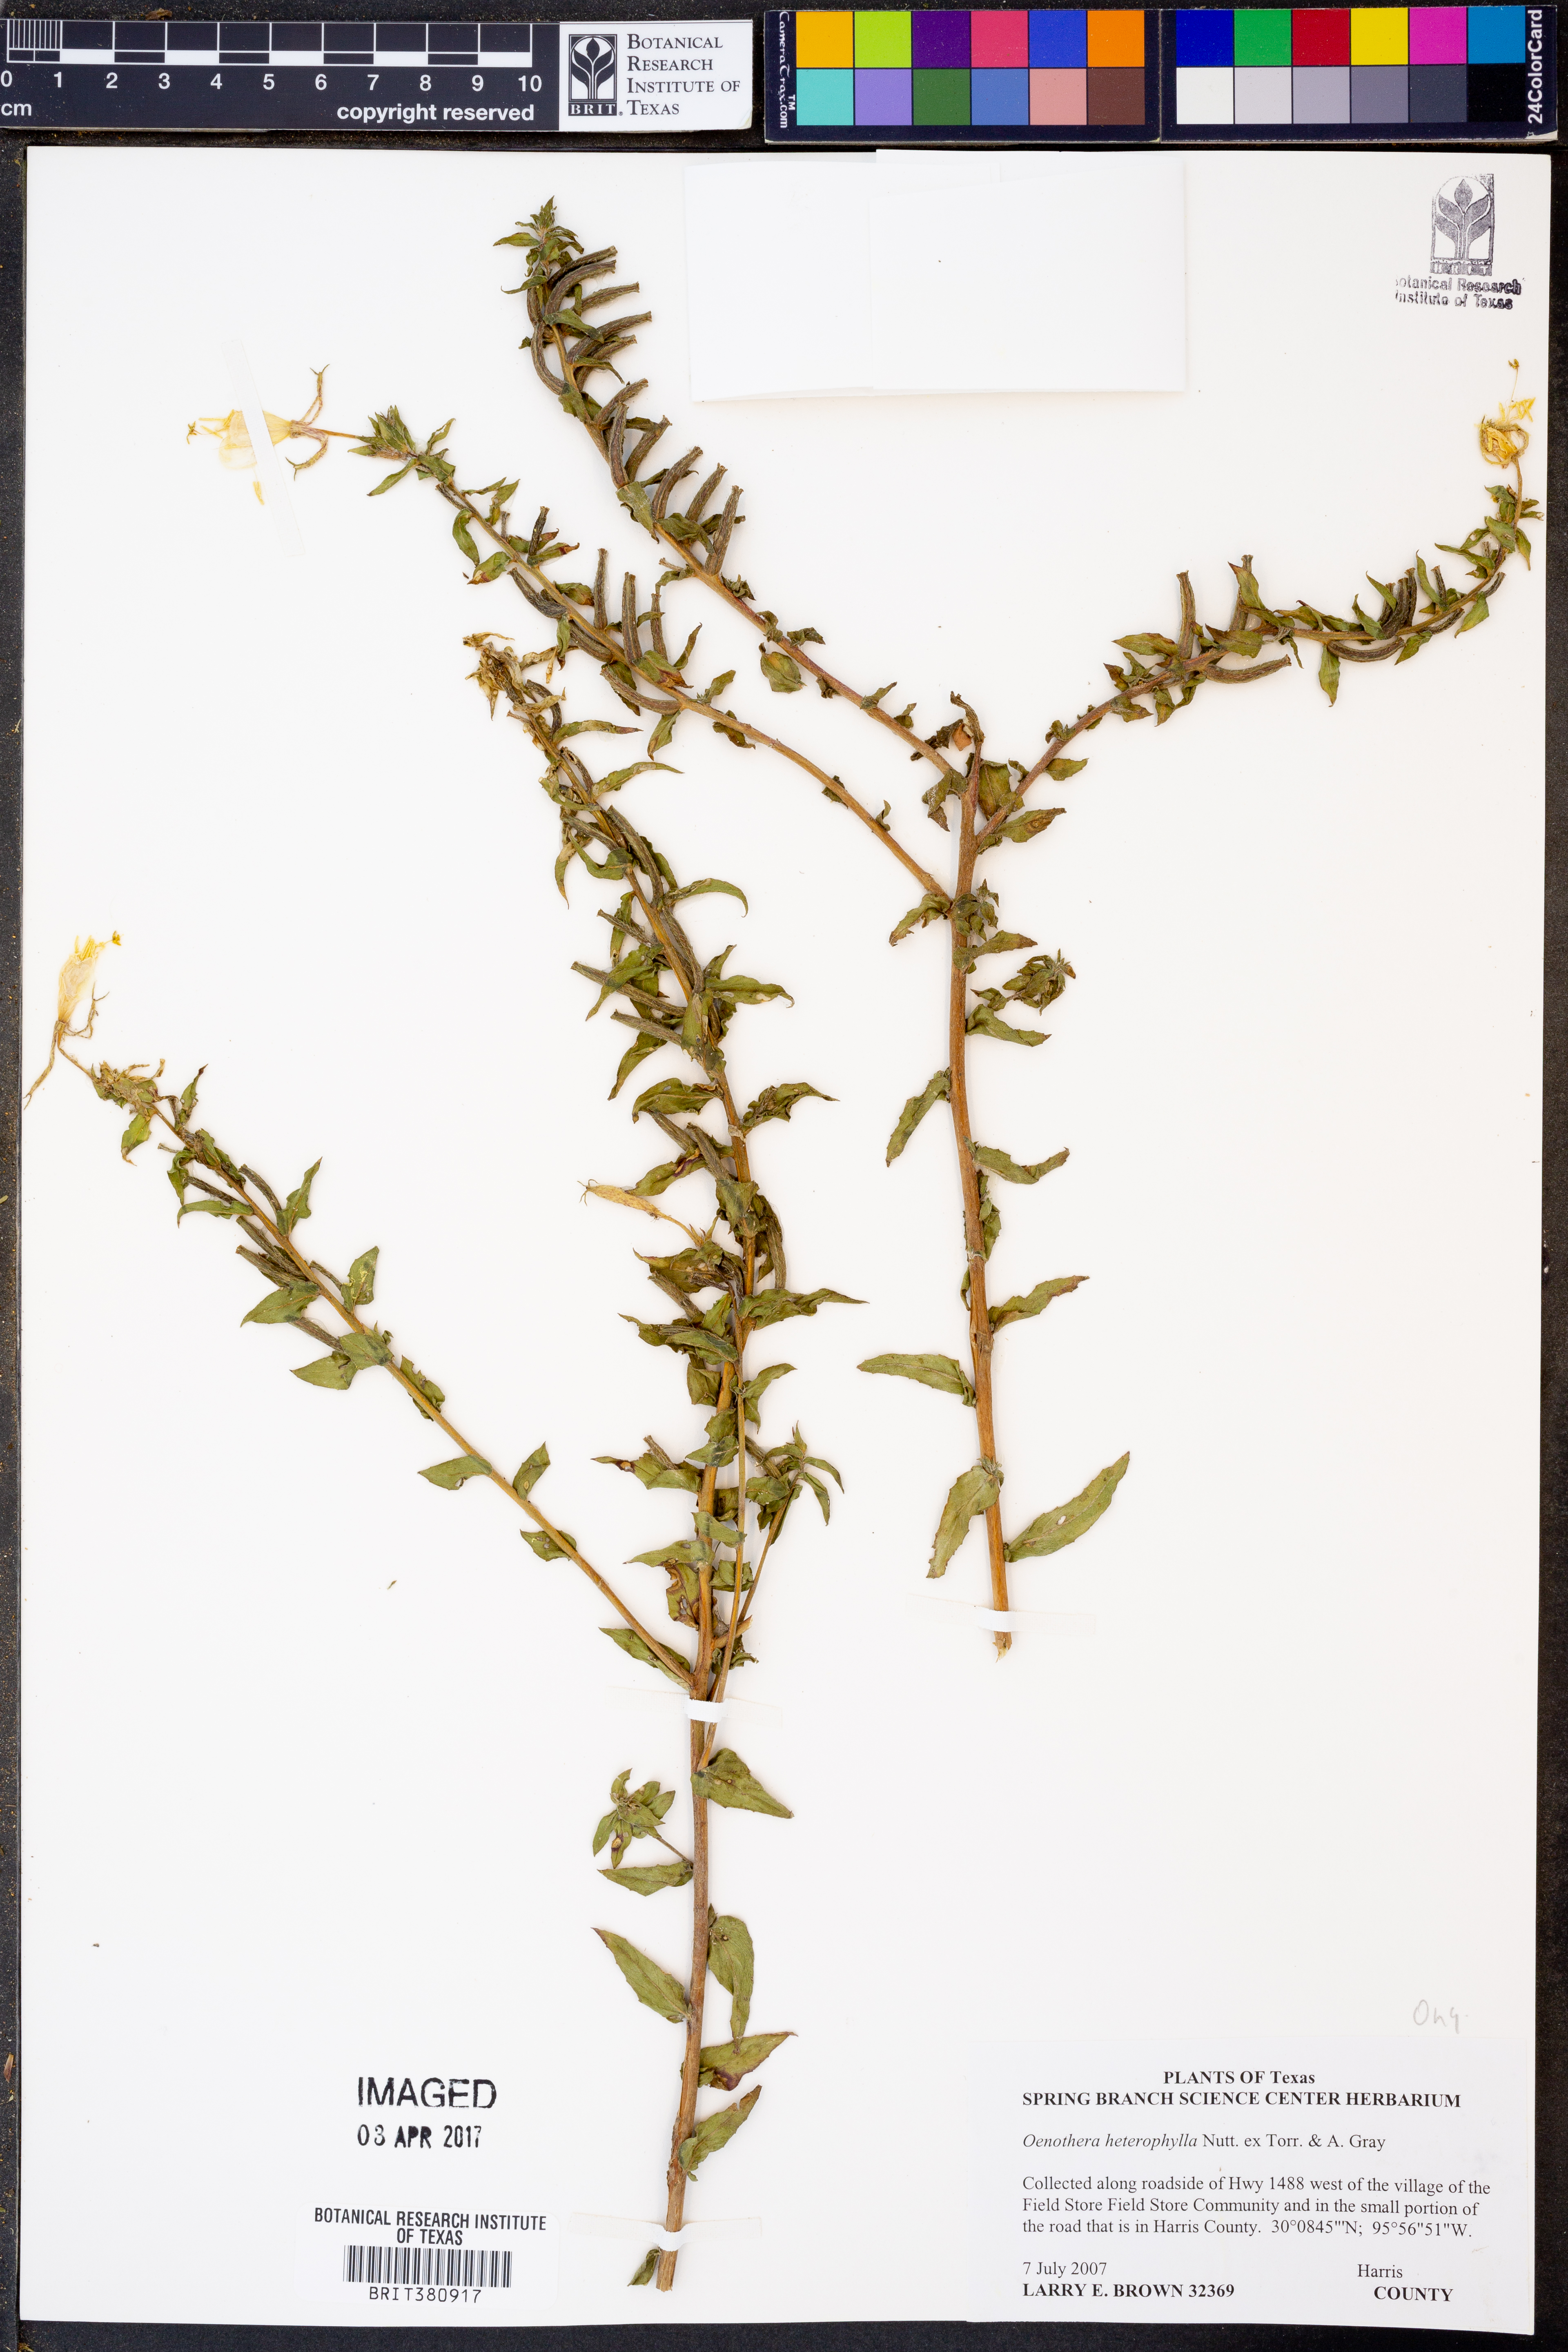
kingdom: Plantae
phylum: Tracheophyta
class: Magnoliopsida
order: Myrtales
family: Onagraceae
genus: Camissonia
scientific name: Camissonia dentata
